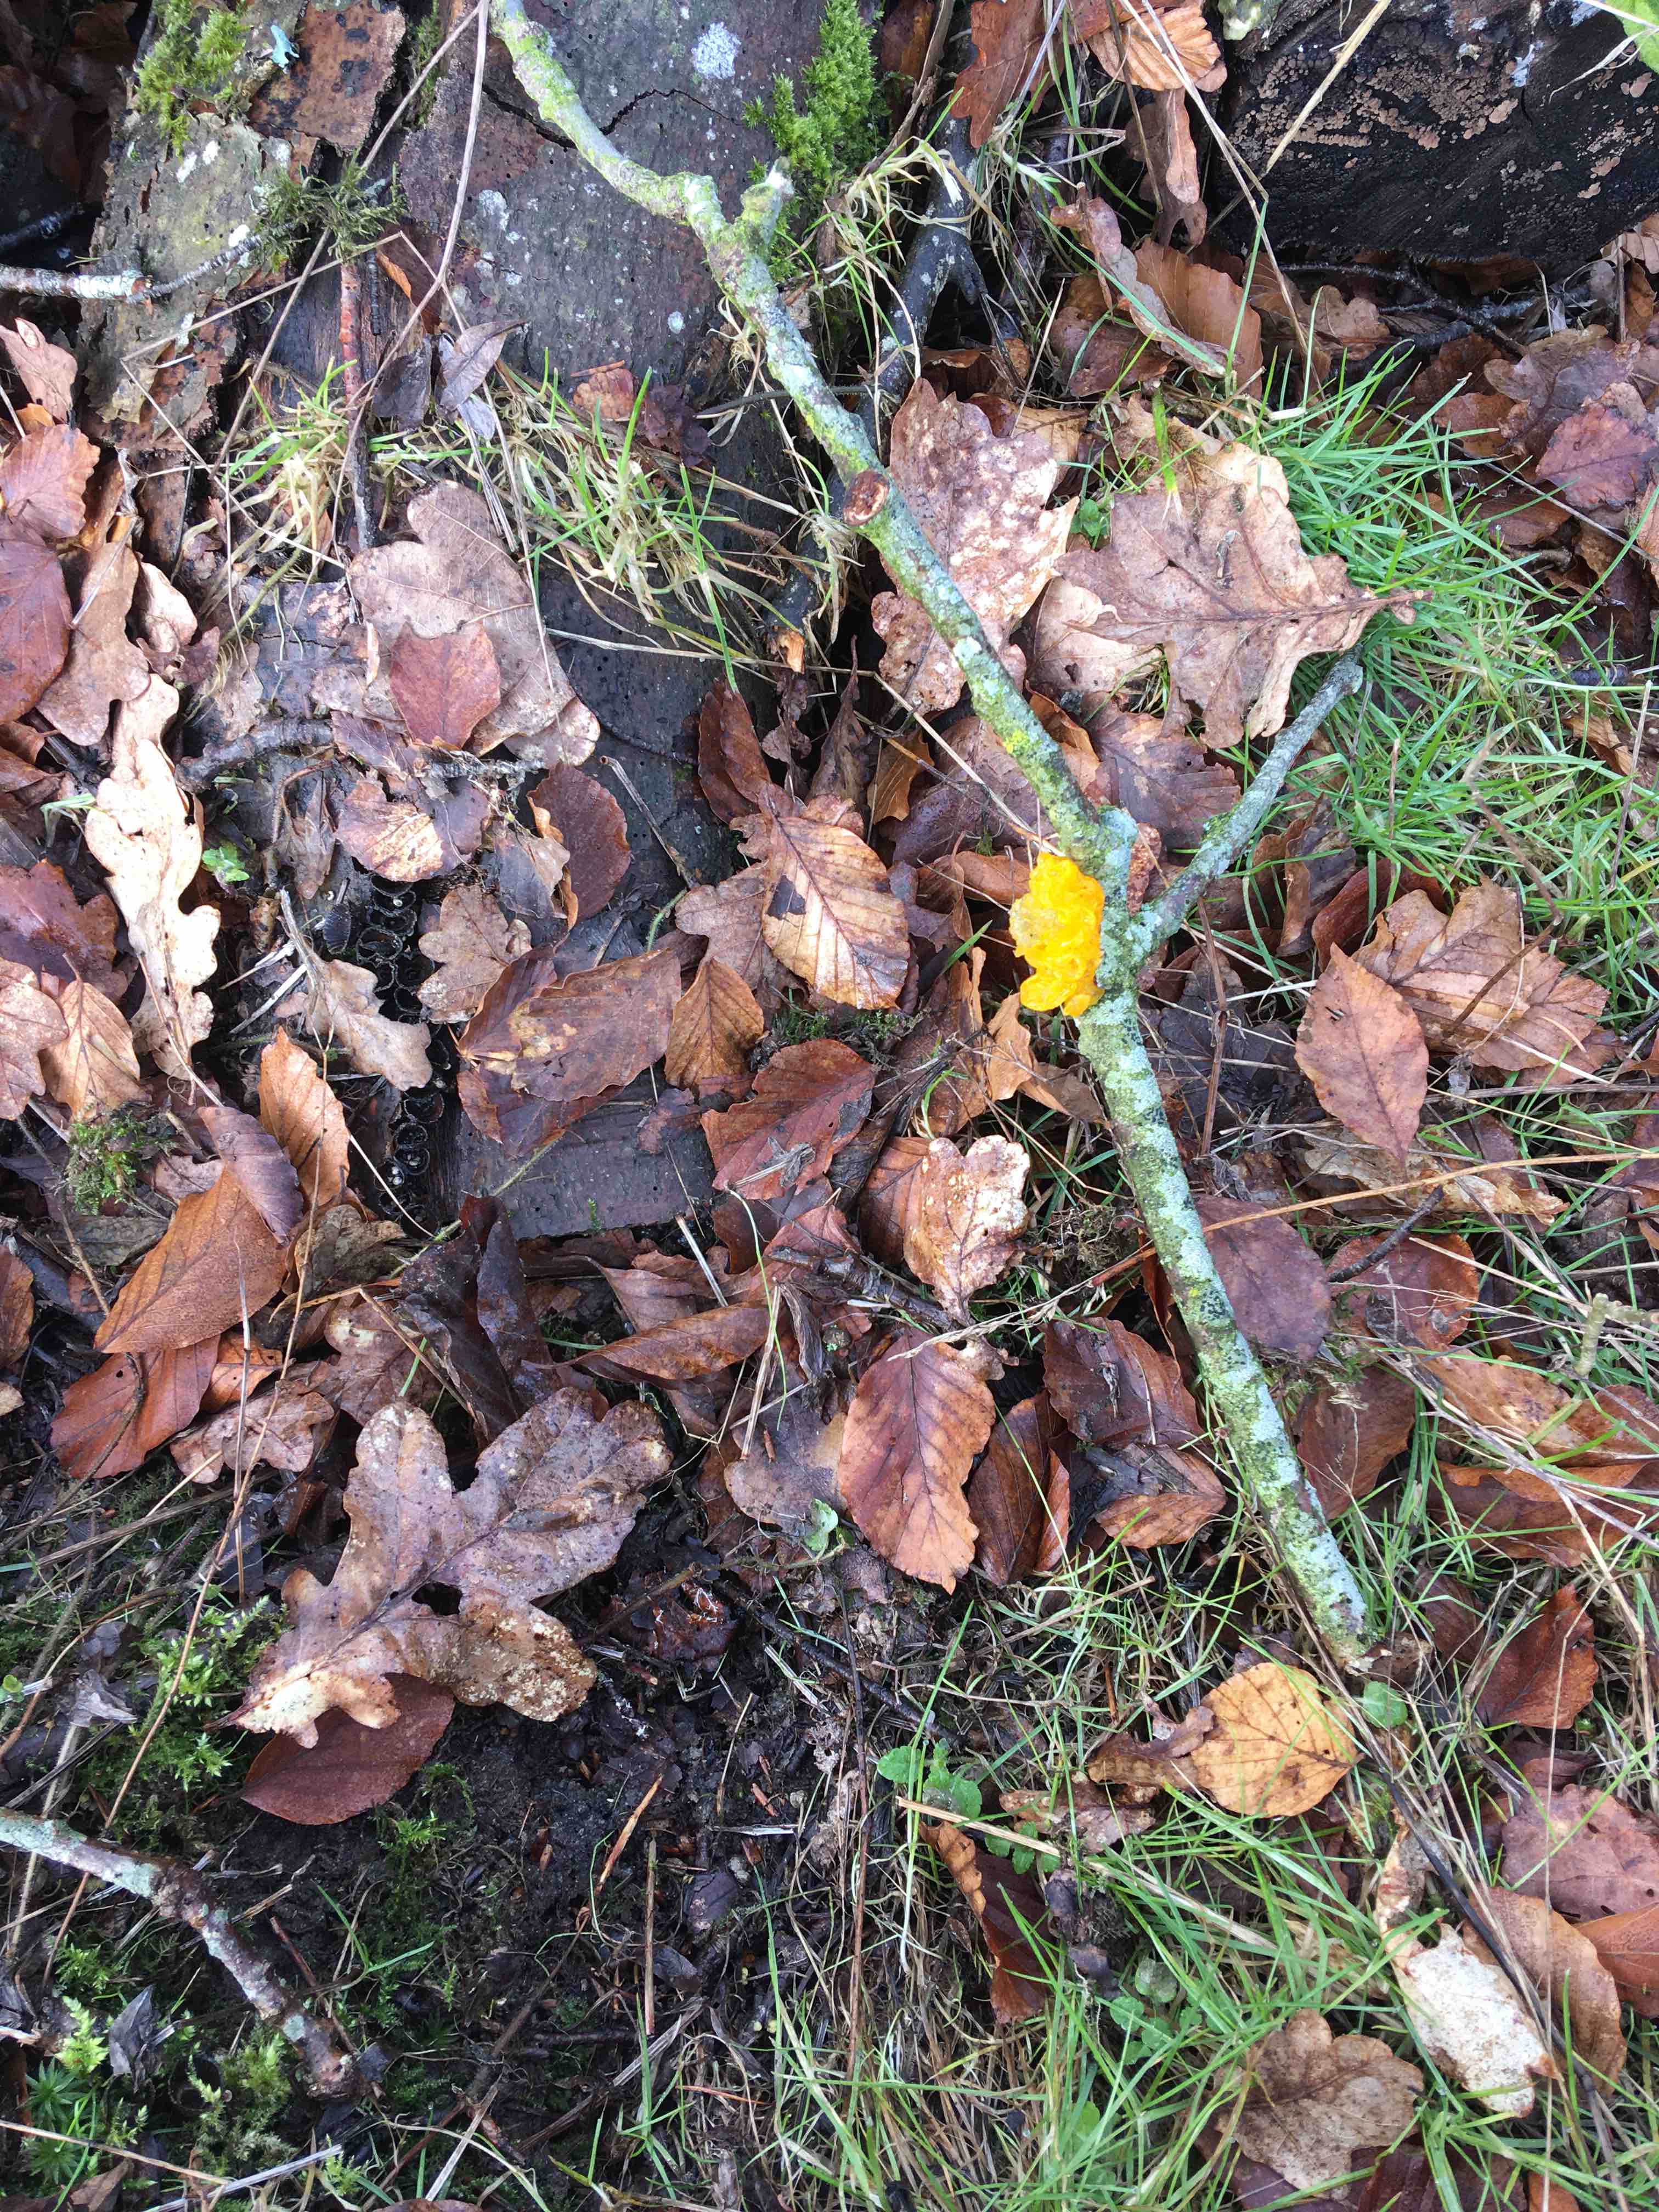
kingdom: Fungi
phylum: Basidiomycota
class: Tremellomycetes
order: Tremellales
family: Tremellaceae
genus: Tremella
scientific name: Tremella mesenterica
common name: gul bævresvamp
